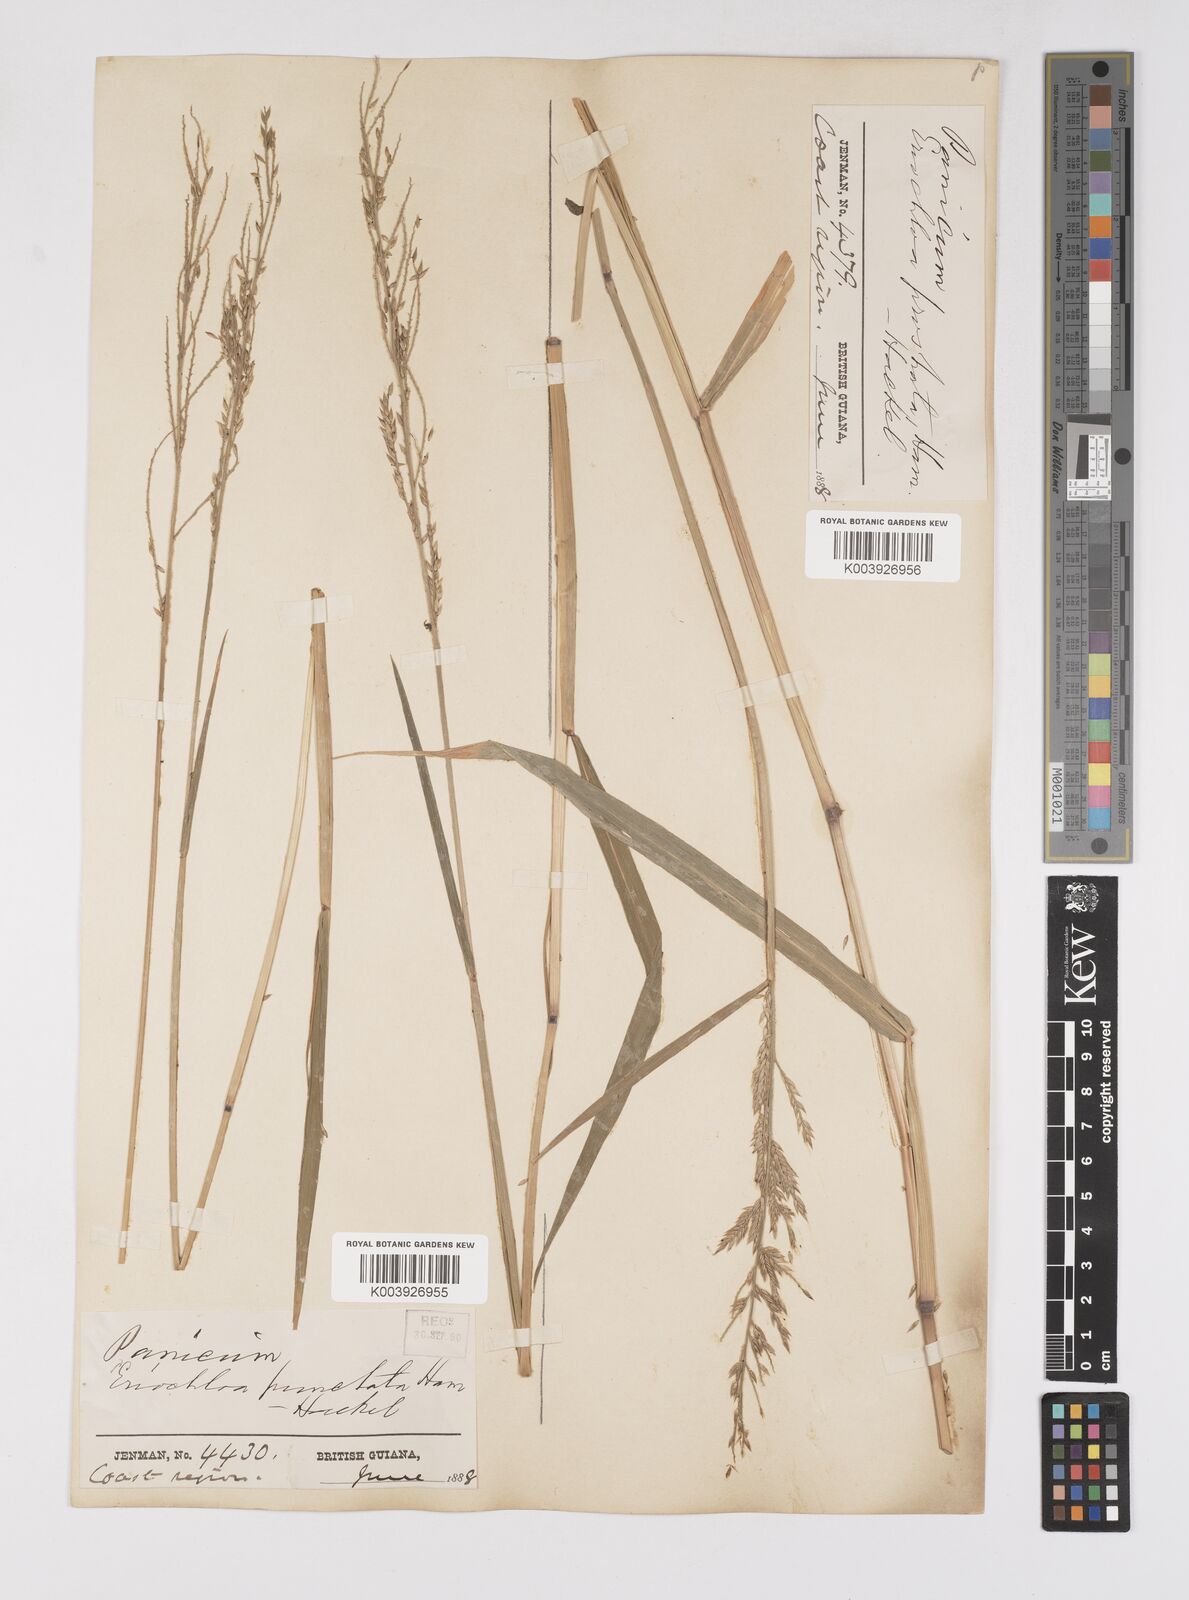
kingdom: Plantae
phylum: Tracheophyta
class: Liliopsida
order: Poales
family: Poaceae
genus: Eriochloa
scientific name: Eriochloa punctata
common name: Louisiana cupgrass
